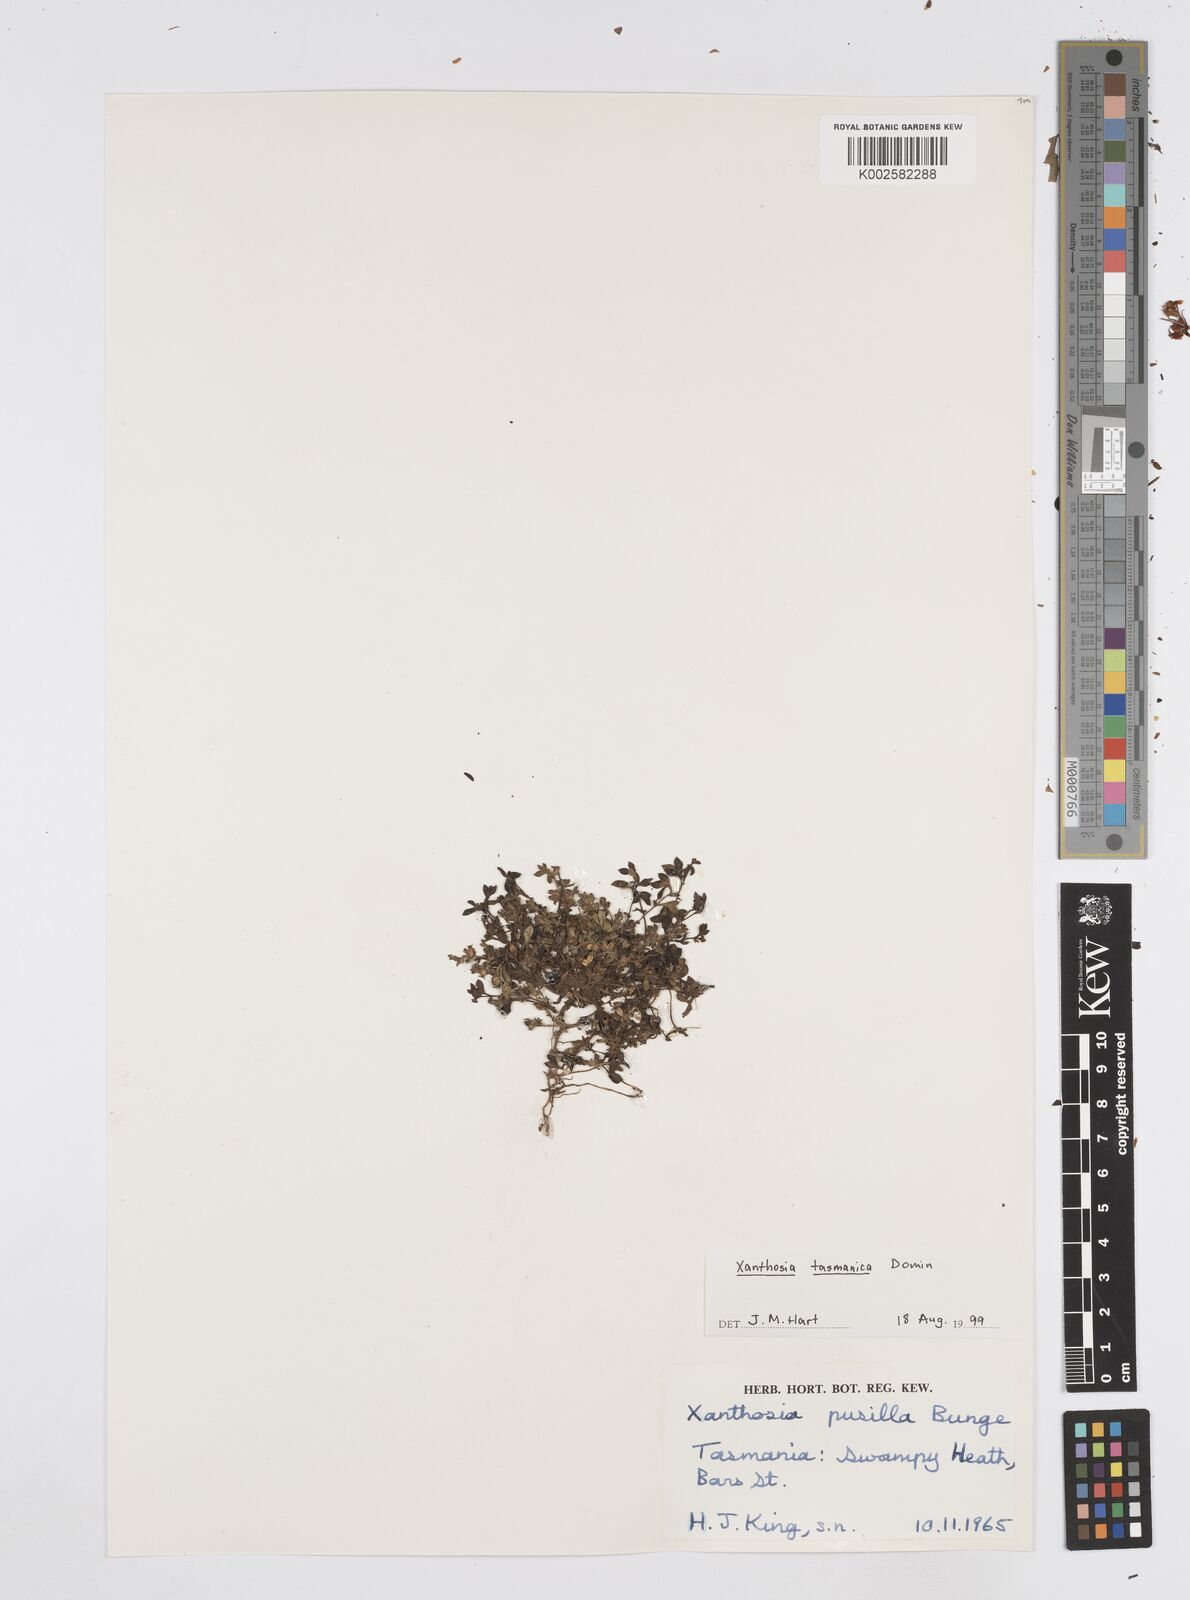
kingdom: Plantae
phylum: Tracheophyta
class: Magnoliopsida
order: Apiales
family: Apiaceae
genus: Xanthosia
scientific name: Xanthosia tasmanica
